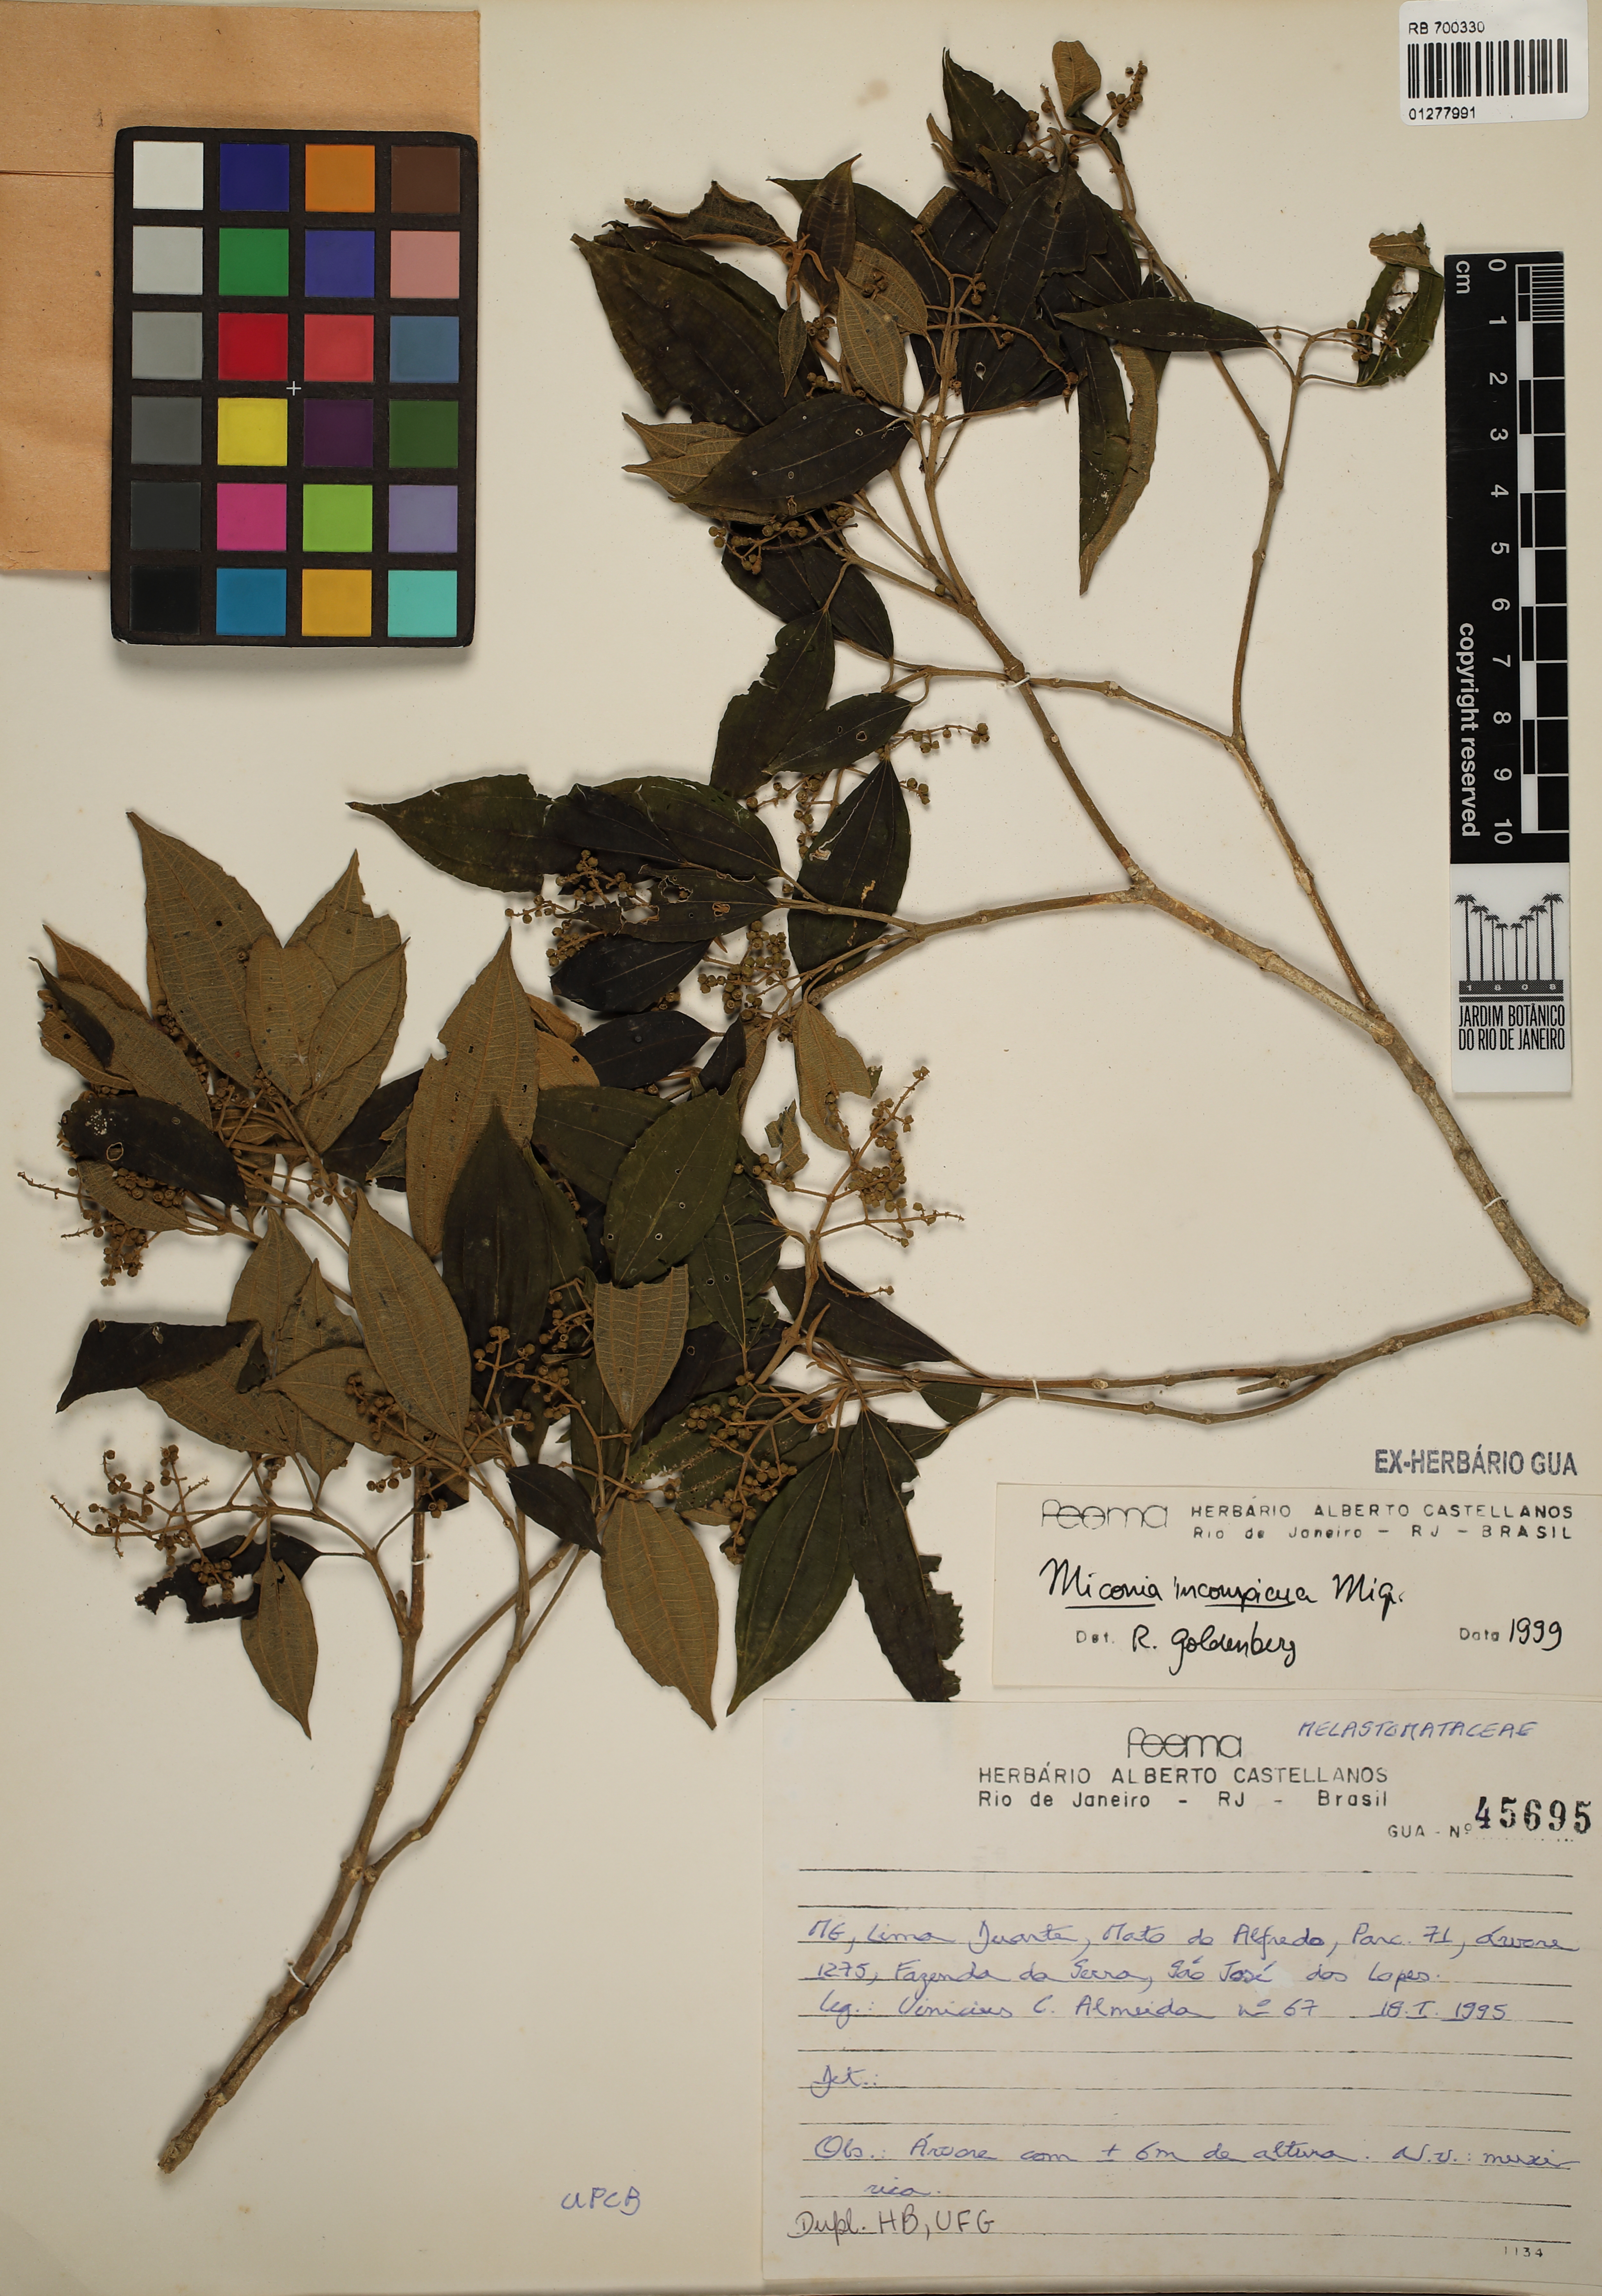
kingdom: Plantae
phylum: Tracheophyta
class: Magnoliopsida
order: Myrtales
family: Melastomataceae
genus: Miconia
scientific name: Miconia inconspicua
